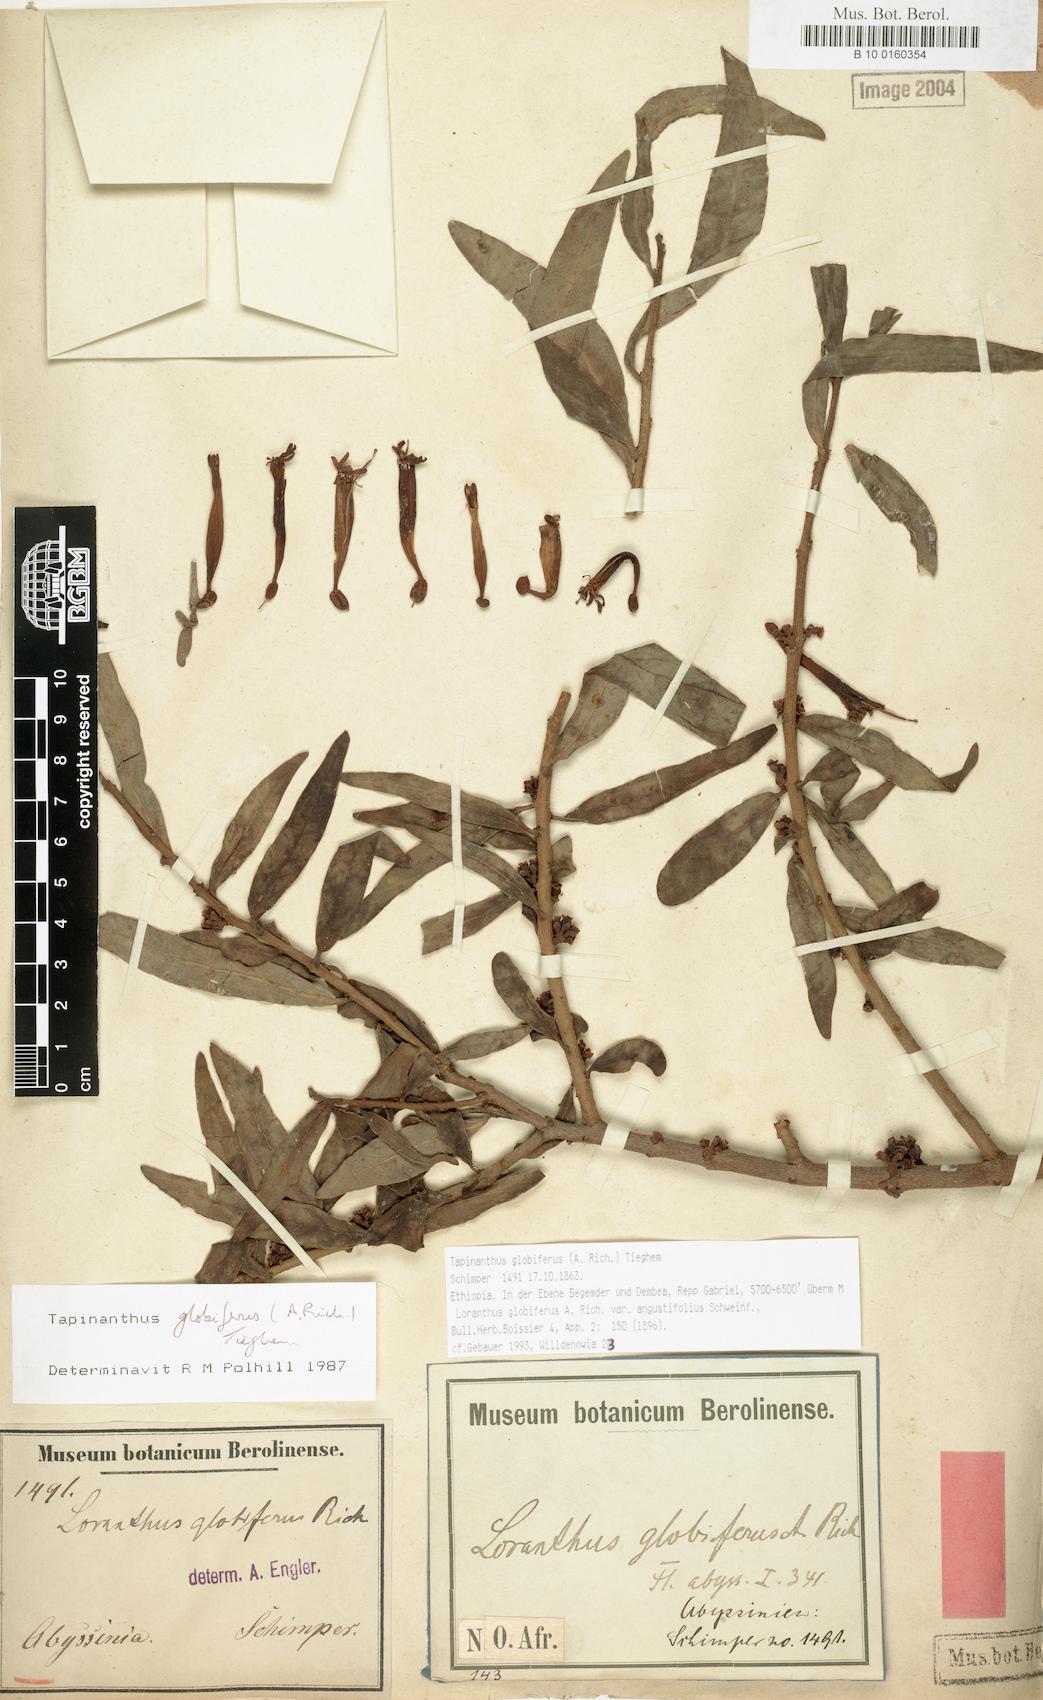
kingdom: Plantae
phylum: Tracheophyta
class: Magnoliopsida
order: Santalales
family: Loranthaceae
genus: Tapinanthus
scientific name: Tapinanthus globiferus
